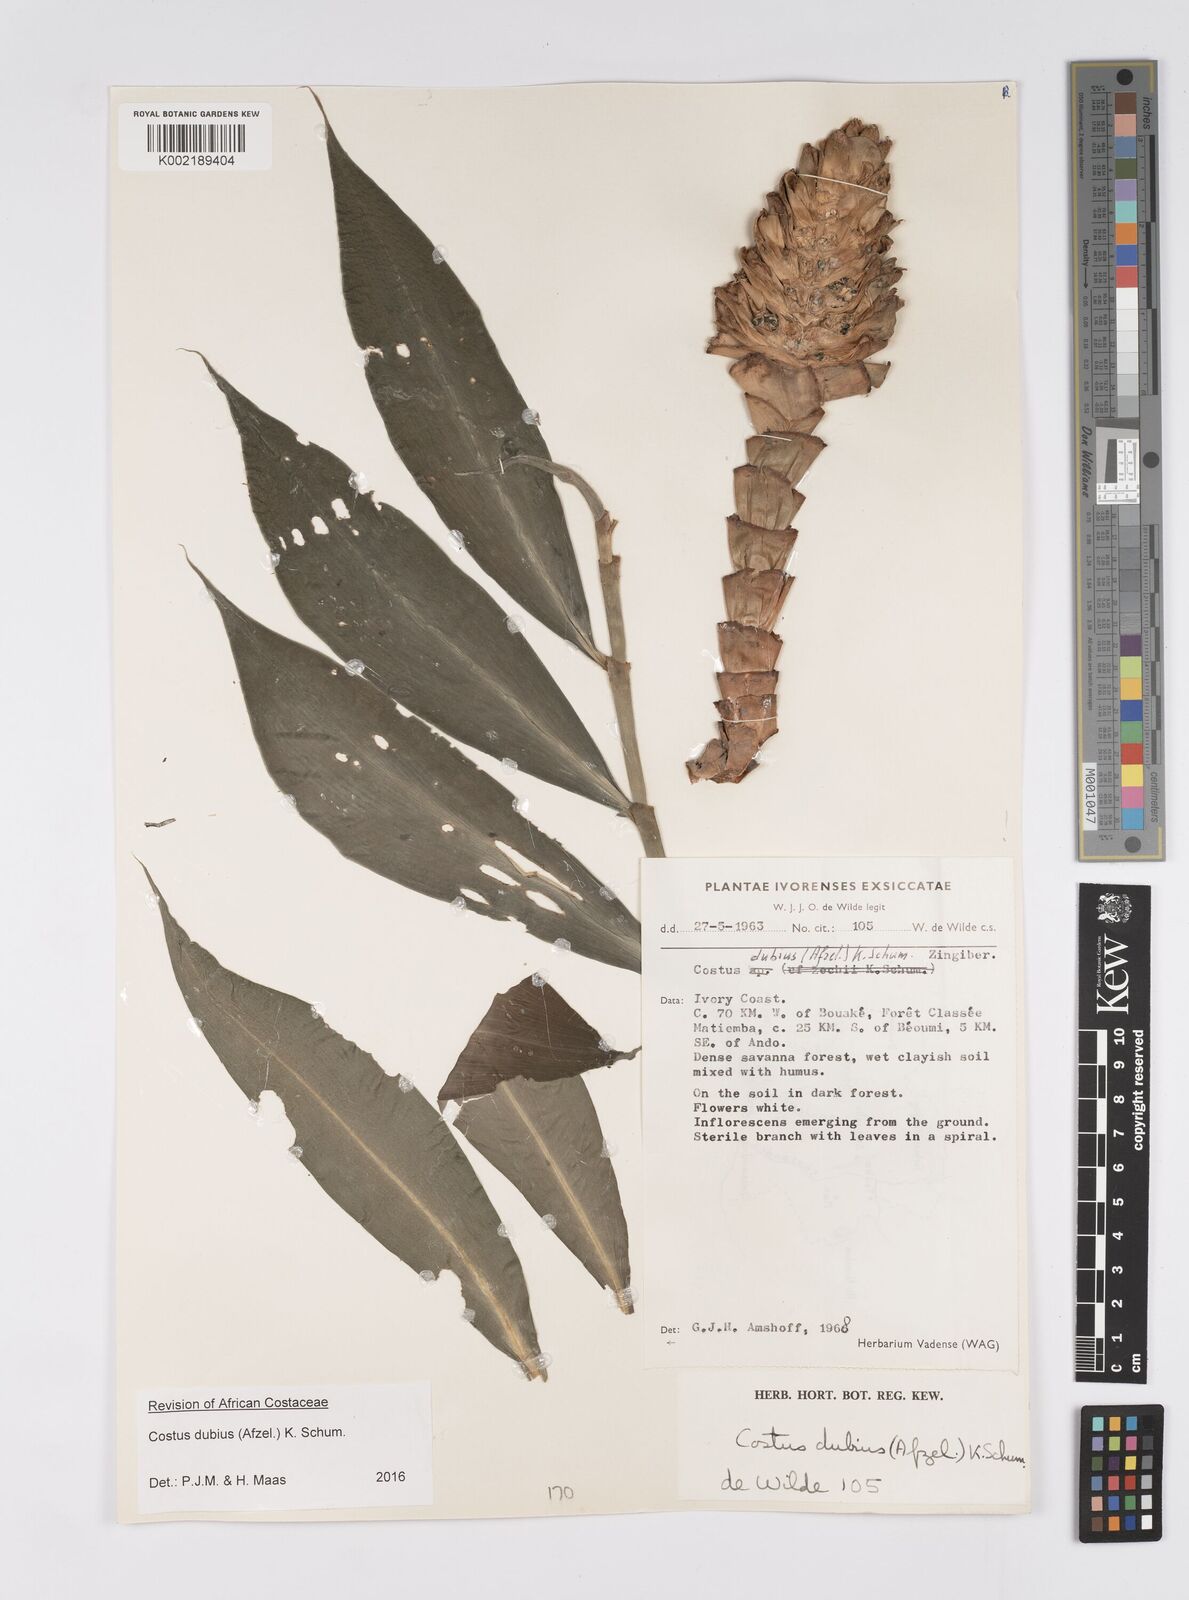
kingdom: Plantae
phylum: Tracheophyta
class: Liliopsida
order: Zingiberales
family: Costaceae
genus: Costus
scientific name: Costus dubius
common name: Costus
